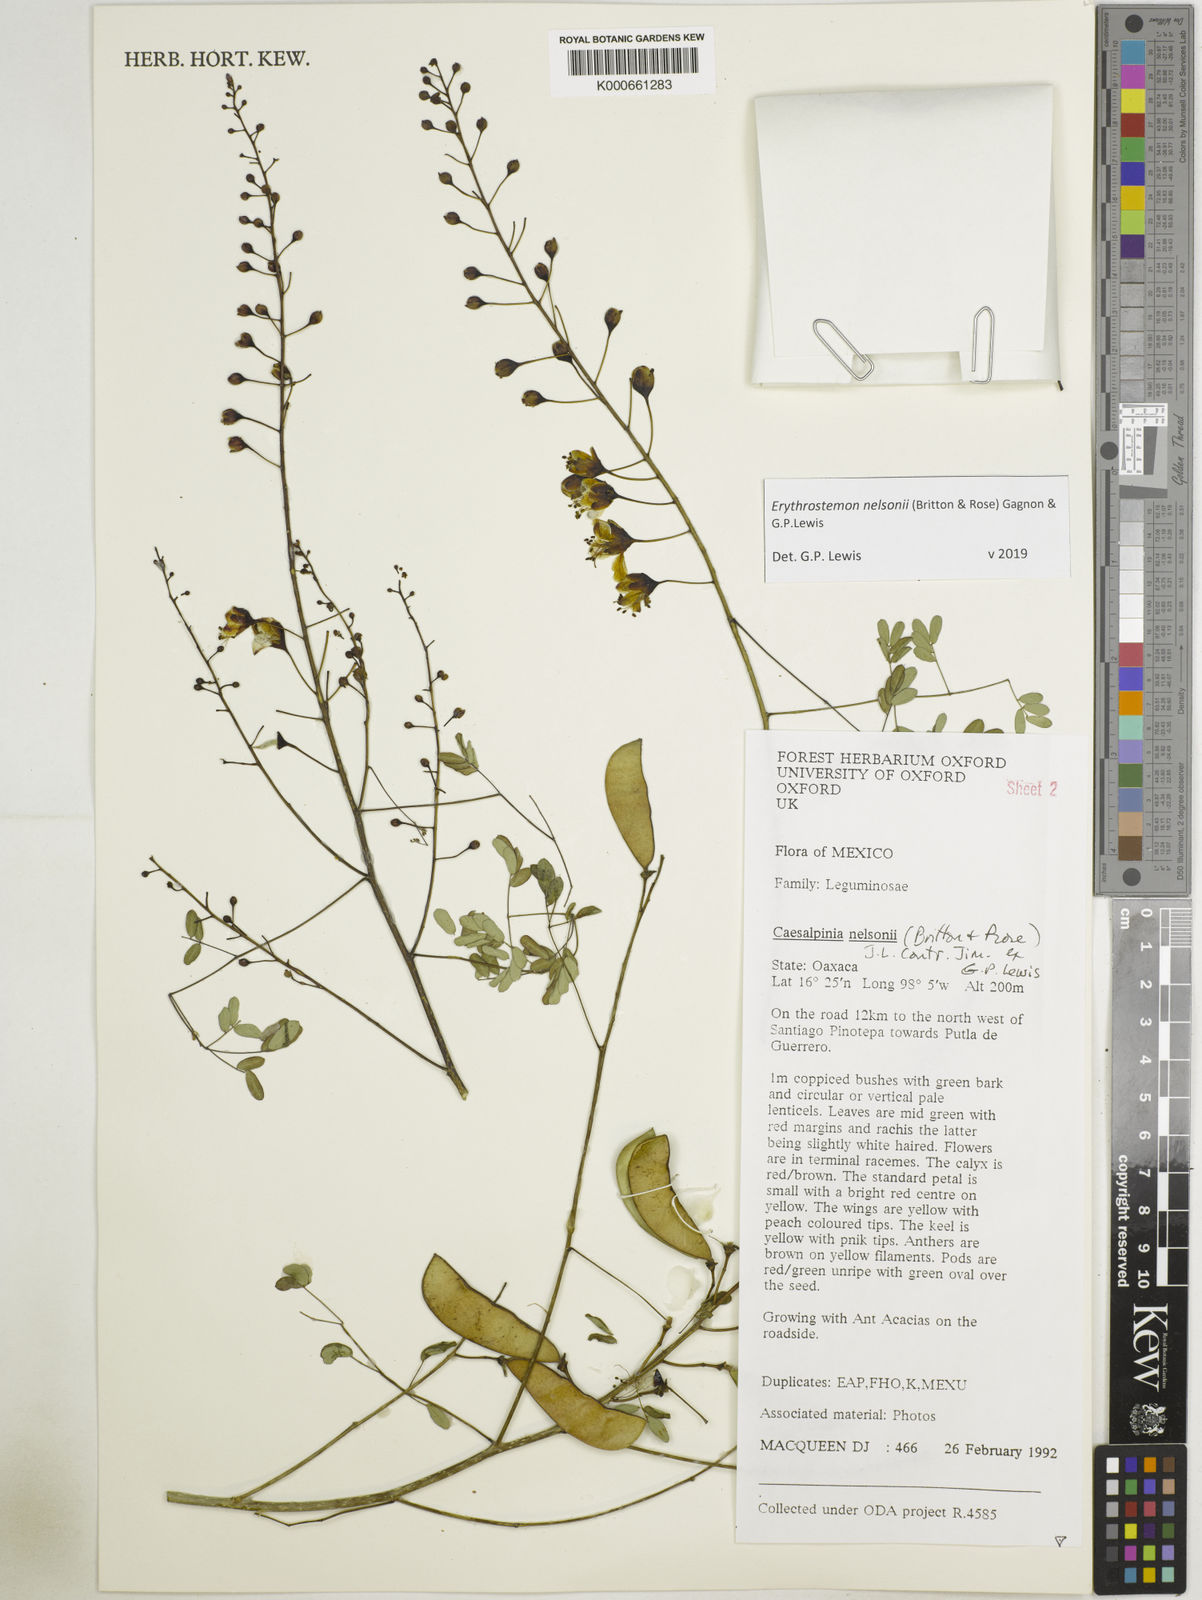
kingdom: Plantae
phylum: Tracheophyta
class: Magnoliopsida
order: Fabales
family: Fabaceae
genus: Erythrostemon
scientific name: Erythrostemon nelsonii
